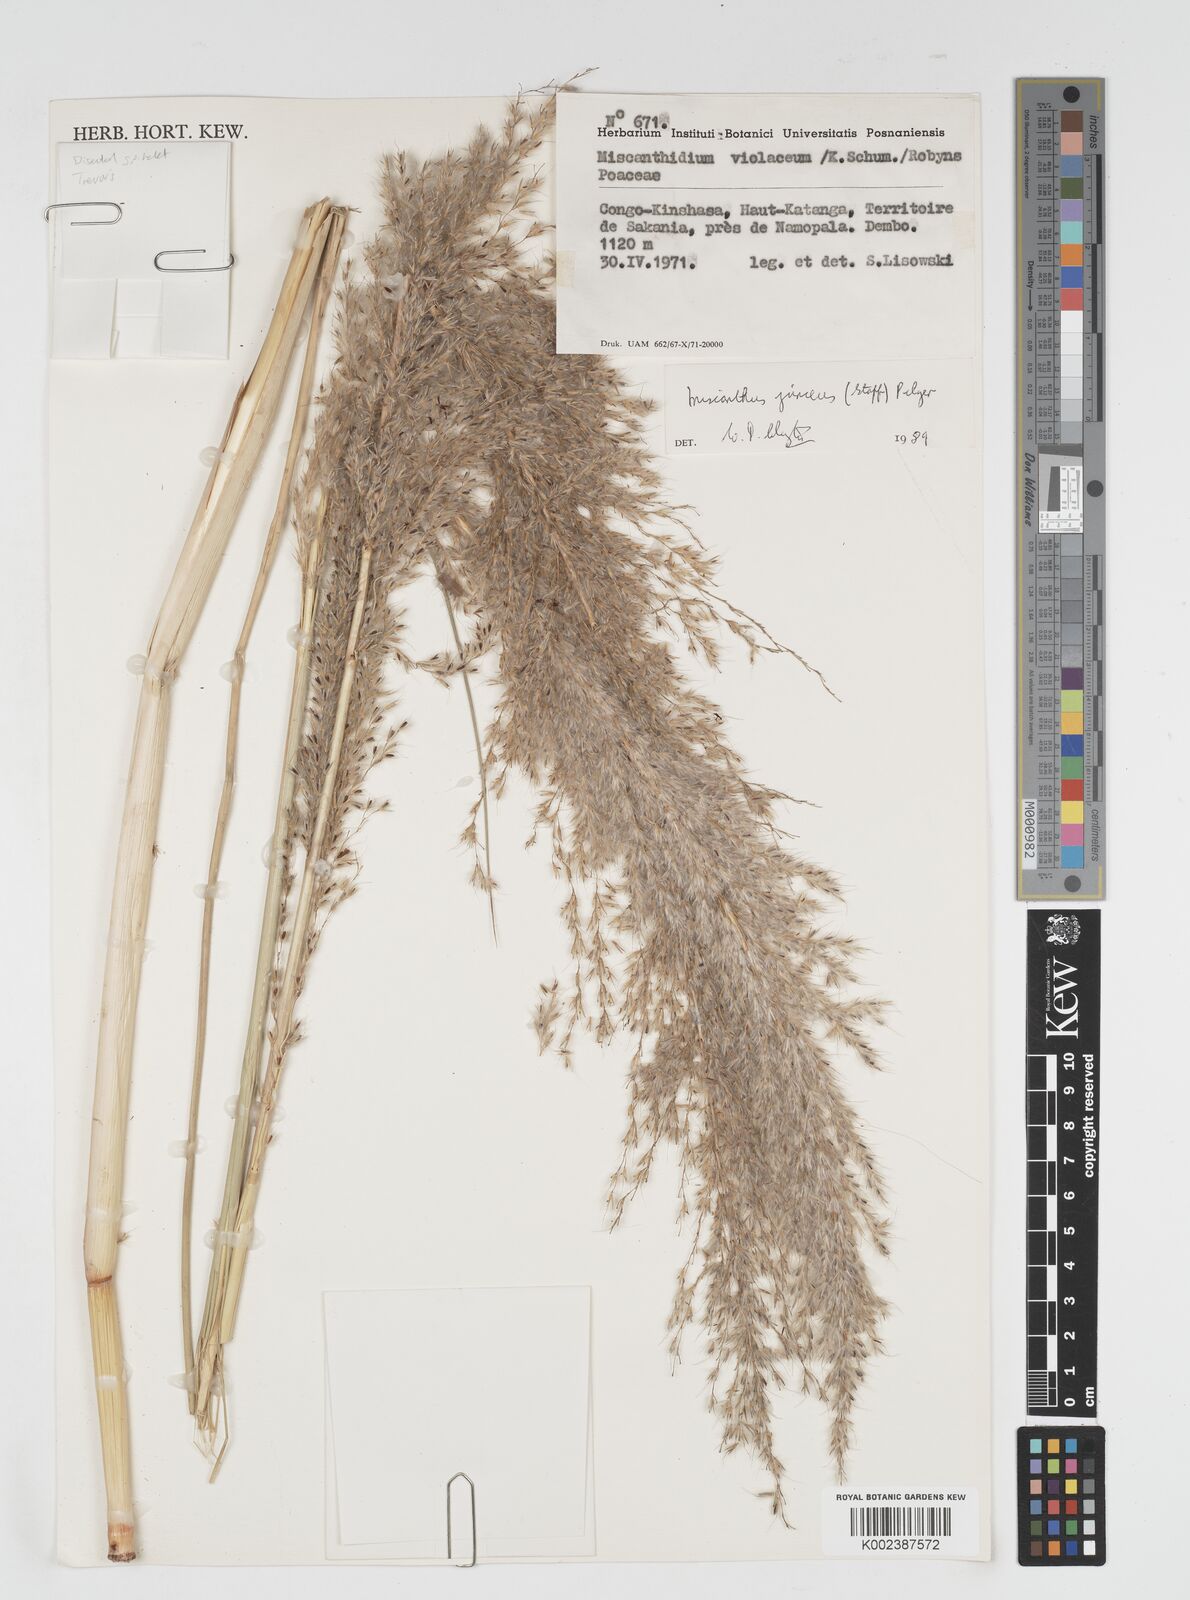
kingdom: Plantae
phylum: Tracheophyta
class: Liliopsida
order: Poales
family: Poaceae
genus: Miscanthidium
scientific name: Miscanthidium junceum
